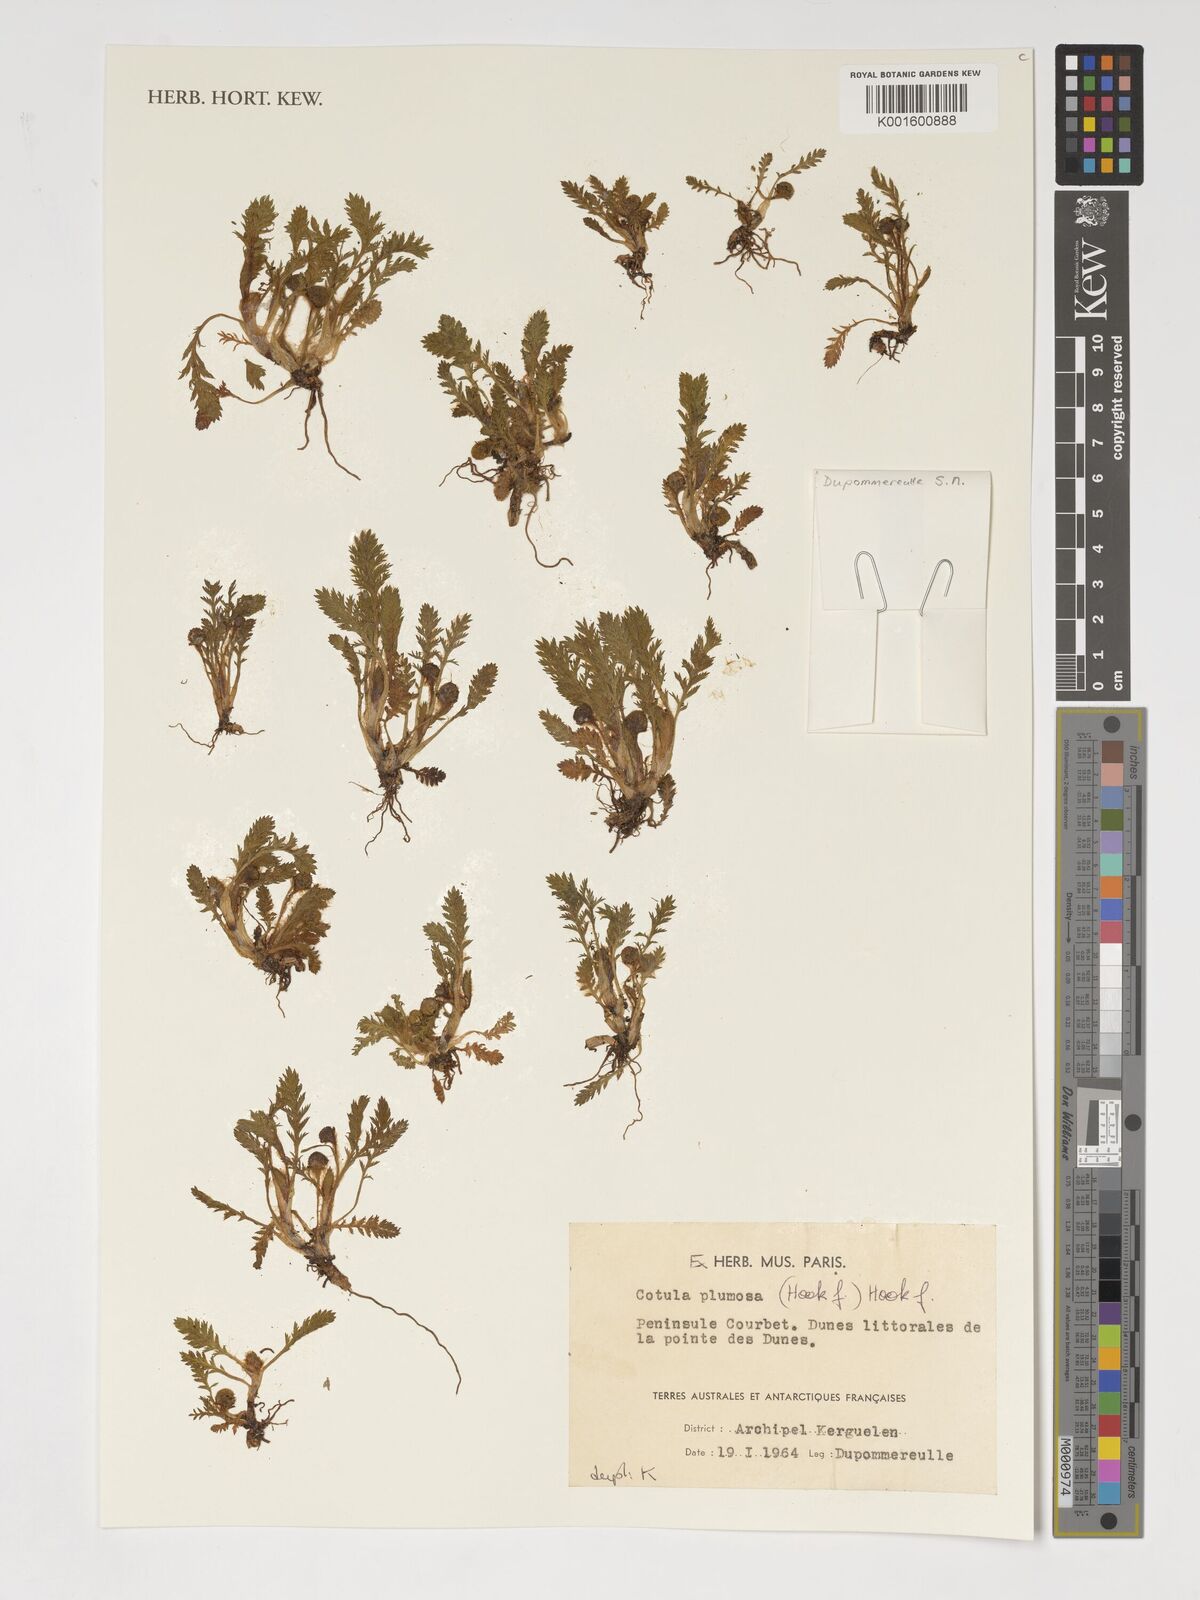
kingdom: Plantae
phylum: Tracheophyta
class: Magnoliopsida
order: Asterales
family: Asteraceae
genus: Leptinella
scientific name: Leptinella plumosa
